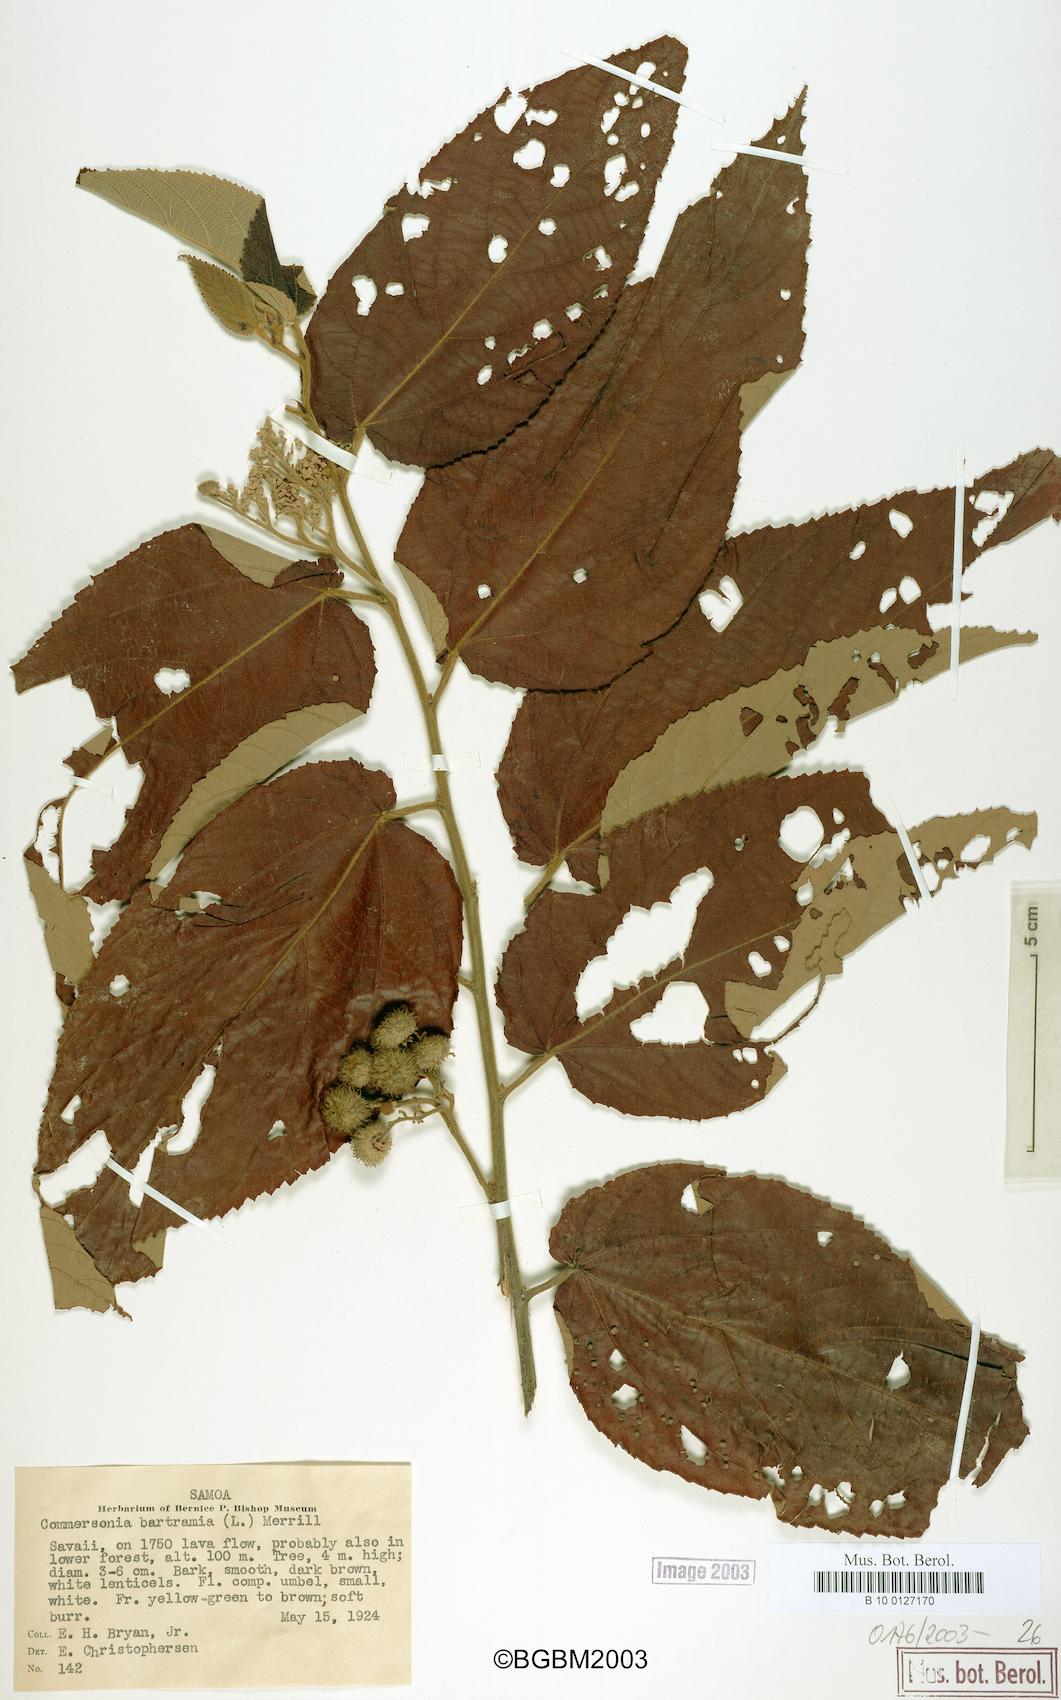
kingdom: Plantae
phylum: Tracheophyta
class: Magnoliopsida
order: Malvales
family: Malvaceae
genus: Commersonia
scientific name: Commersonia bartramia
